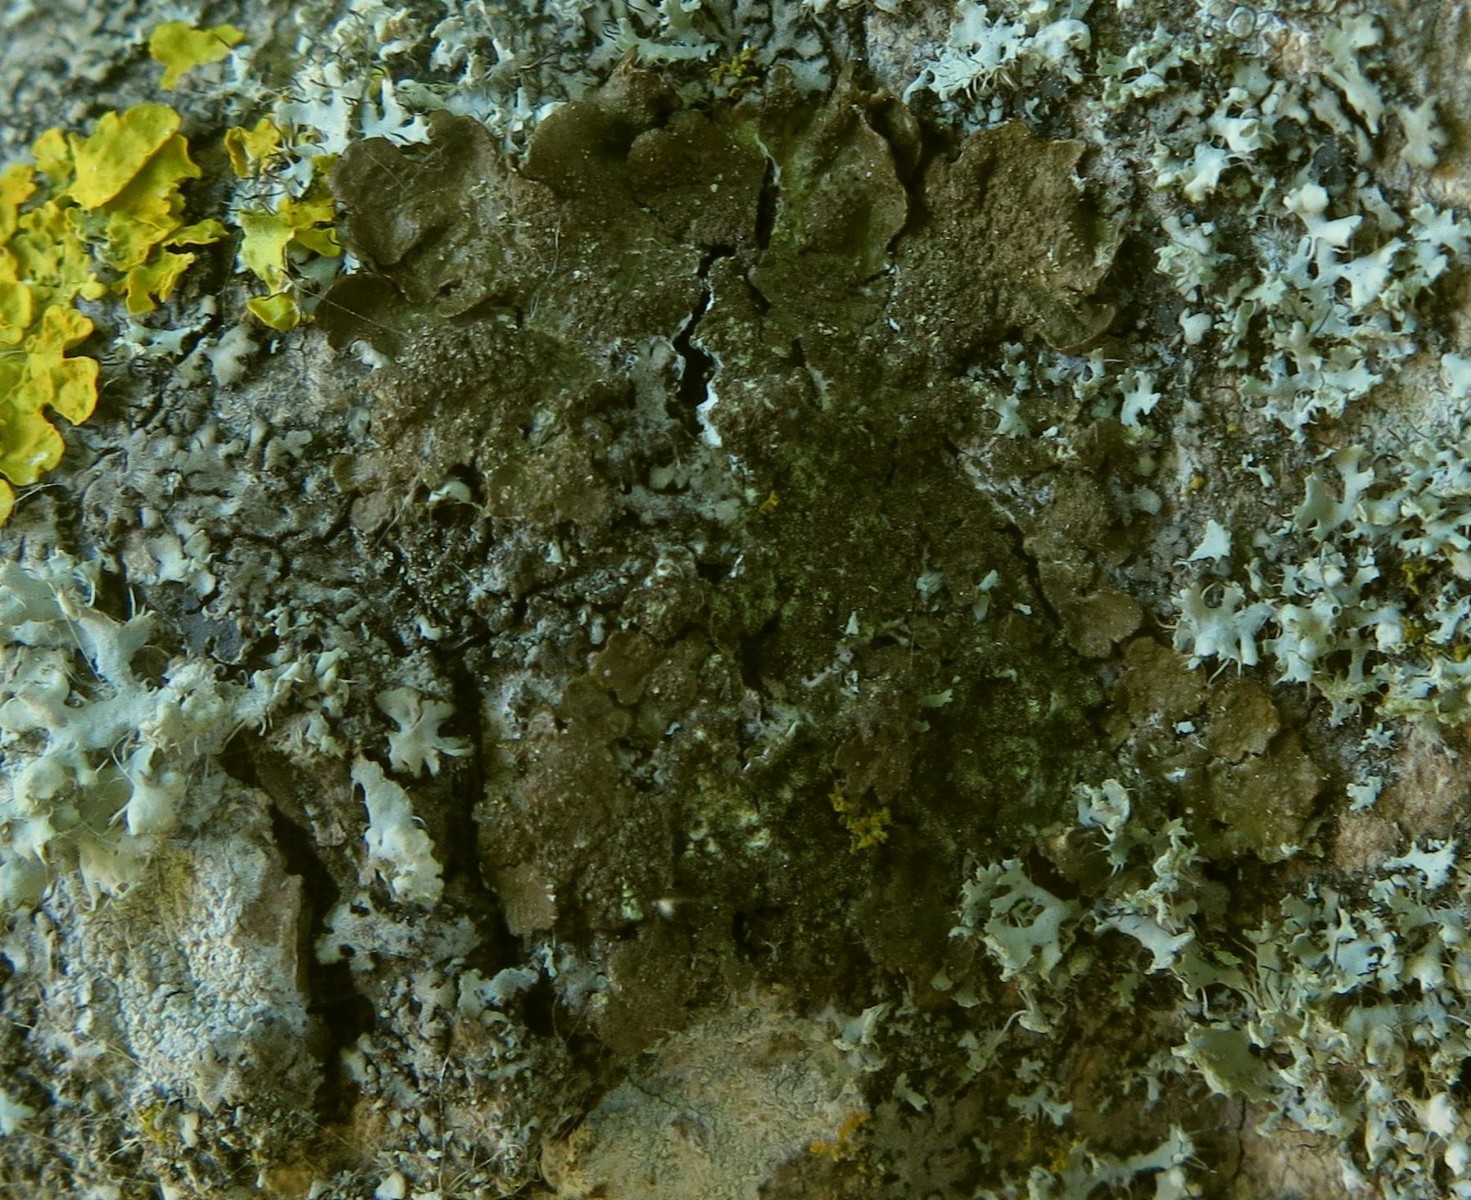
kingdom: Fungi
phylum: Ascomycota
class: Lecanoromycetes
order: Lecanorales
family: Parmeliaceae
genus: Melanelixia
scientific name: Melanelixia subaurifera
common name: guldpudret skållav
